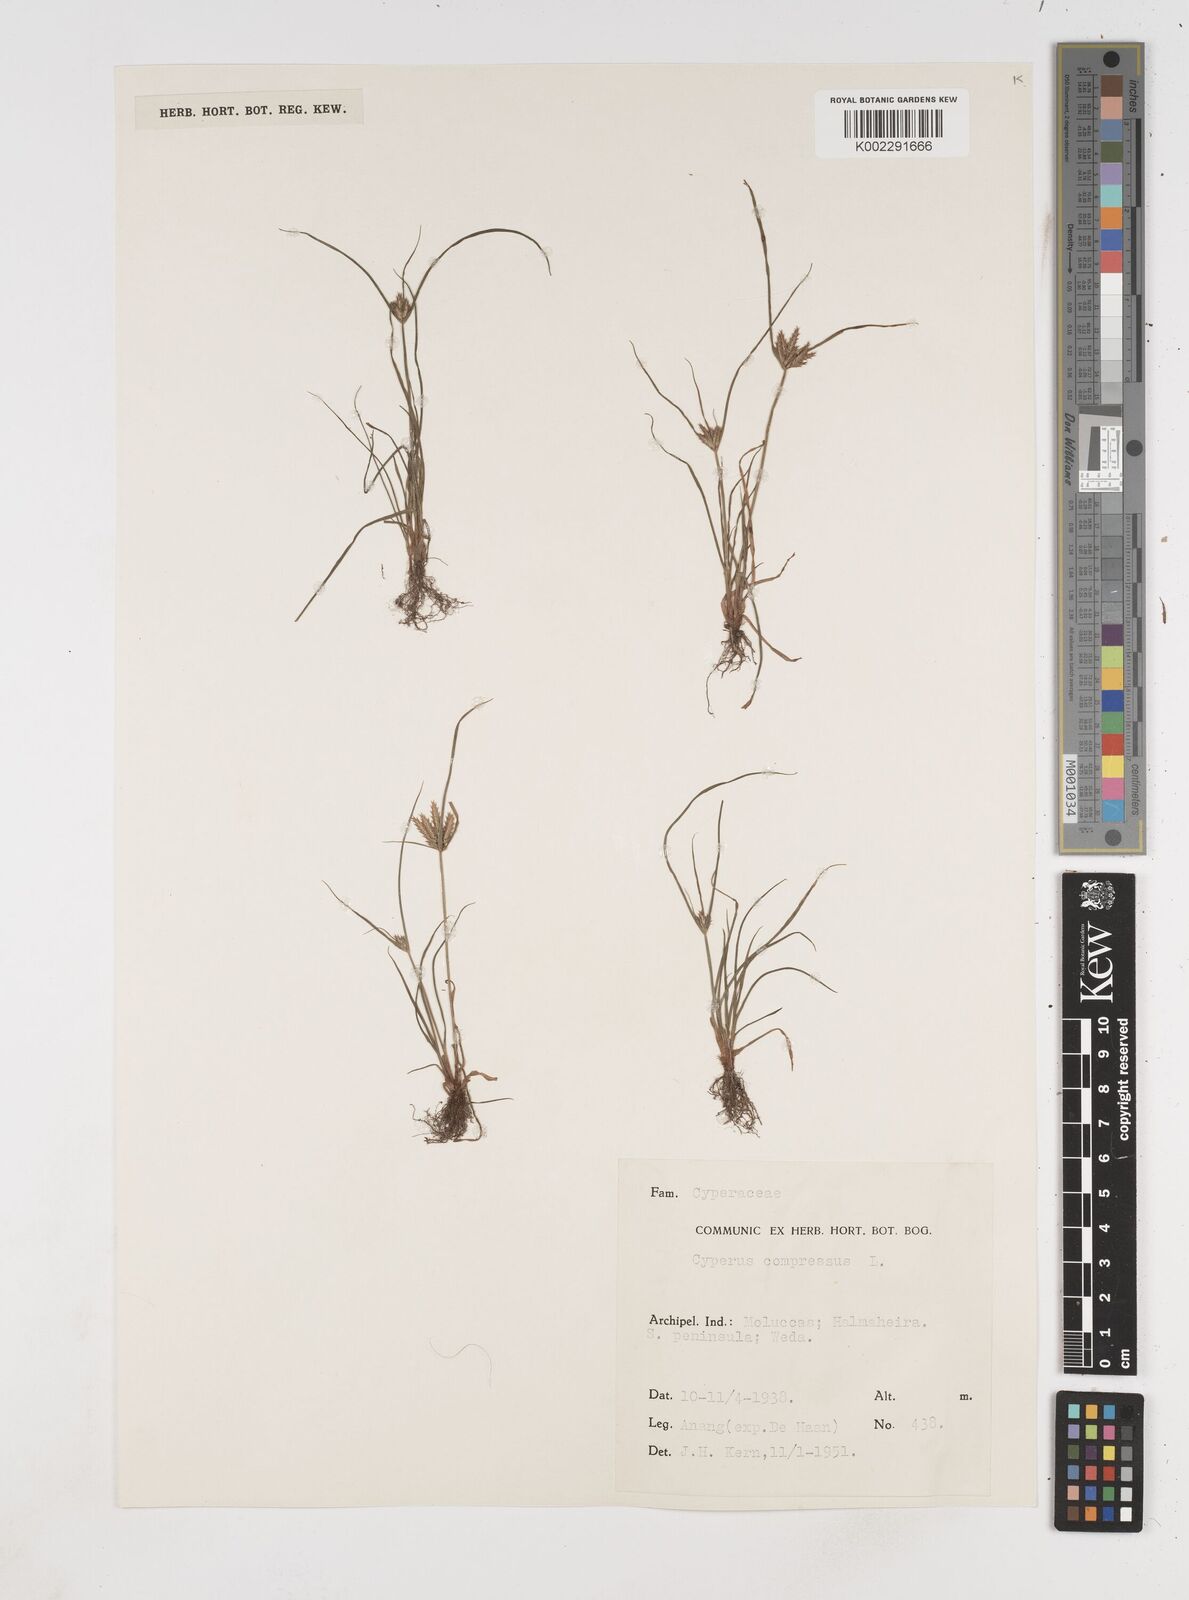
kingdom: Plantae
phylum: Tracheophyta
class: Liliopsida
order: Poales
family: Cyperaceae
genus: Cyperus
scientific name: Cyperus compressus
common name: Poorland flatsedge
